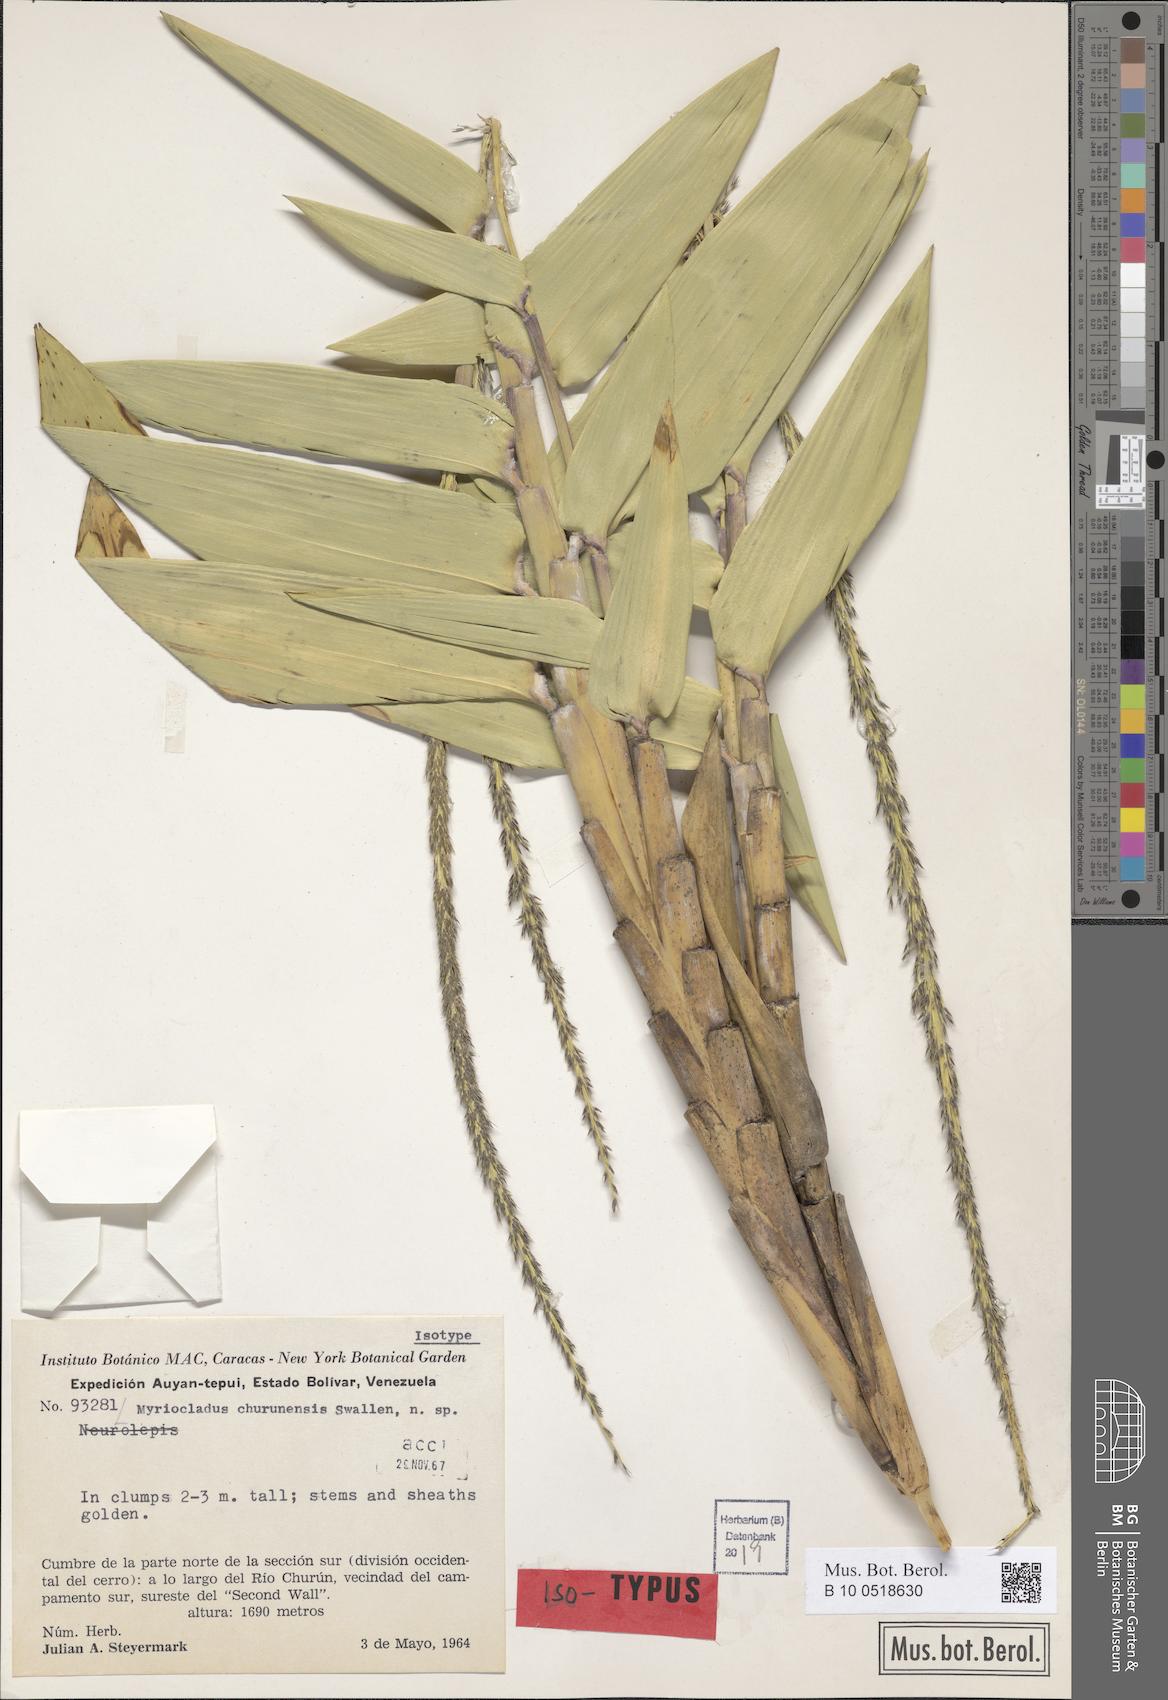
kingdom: Plantae
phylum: Tracheophyta
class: Liliopsida
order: Poales
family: Poaceae
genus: Myriocladus
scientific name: Myriocladus churunensis
